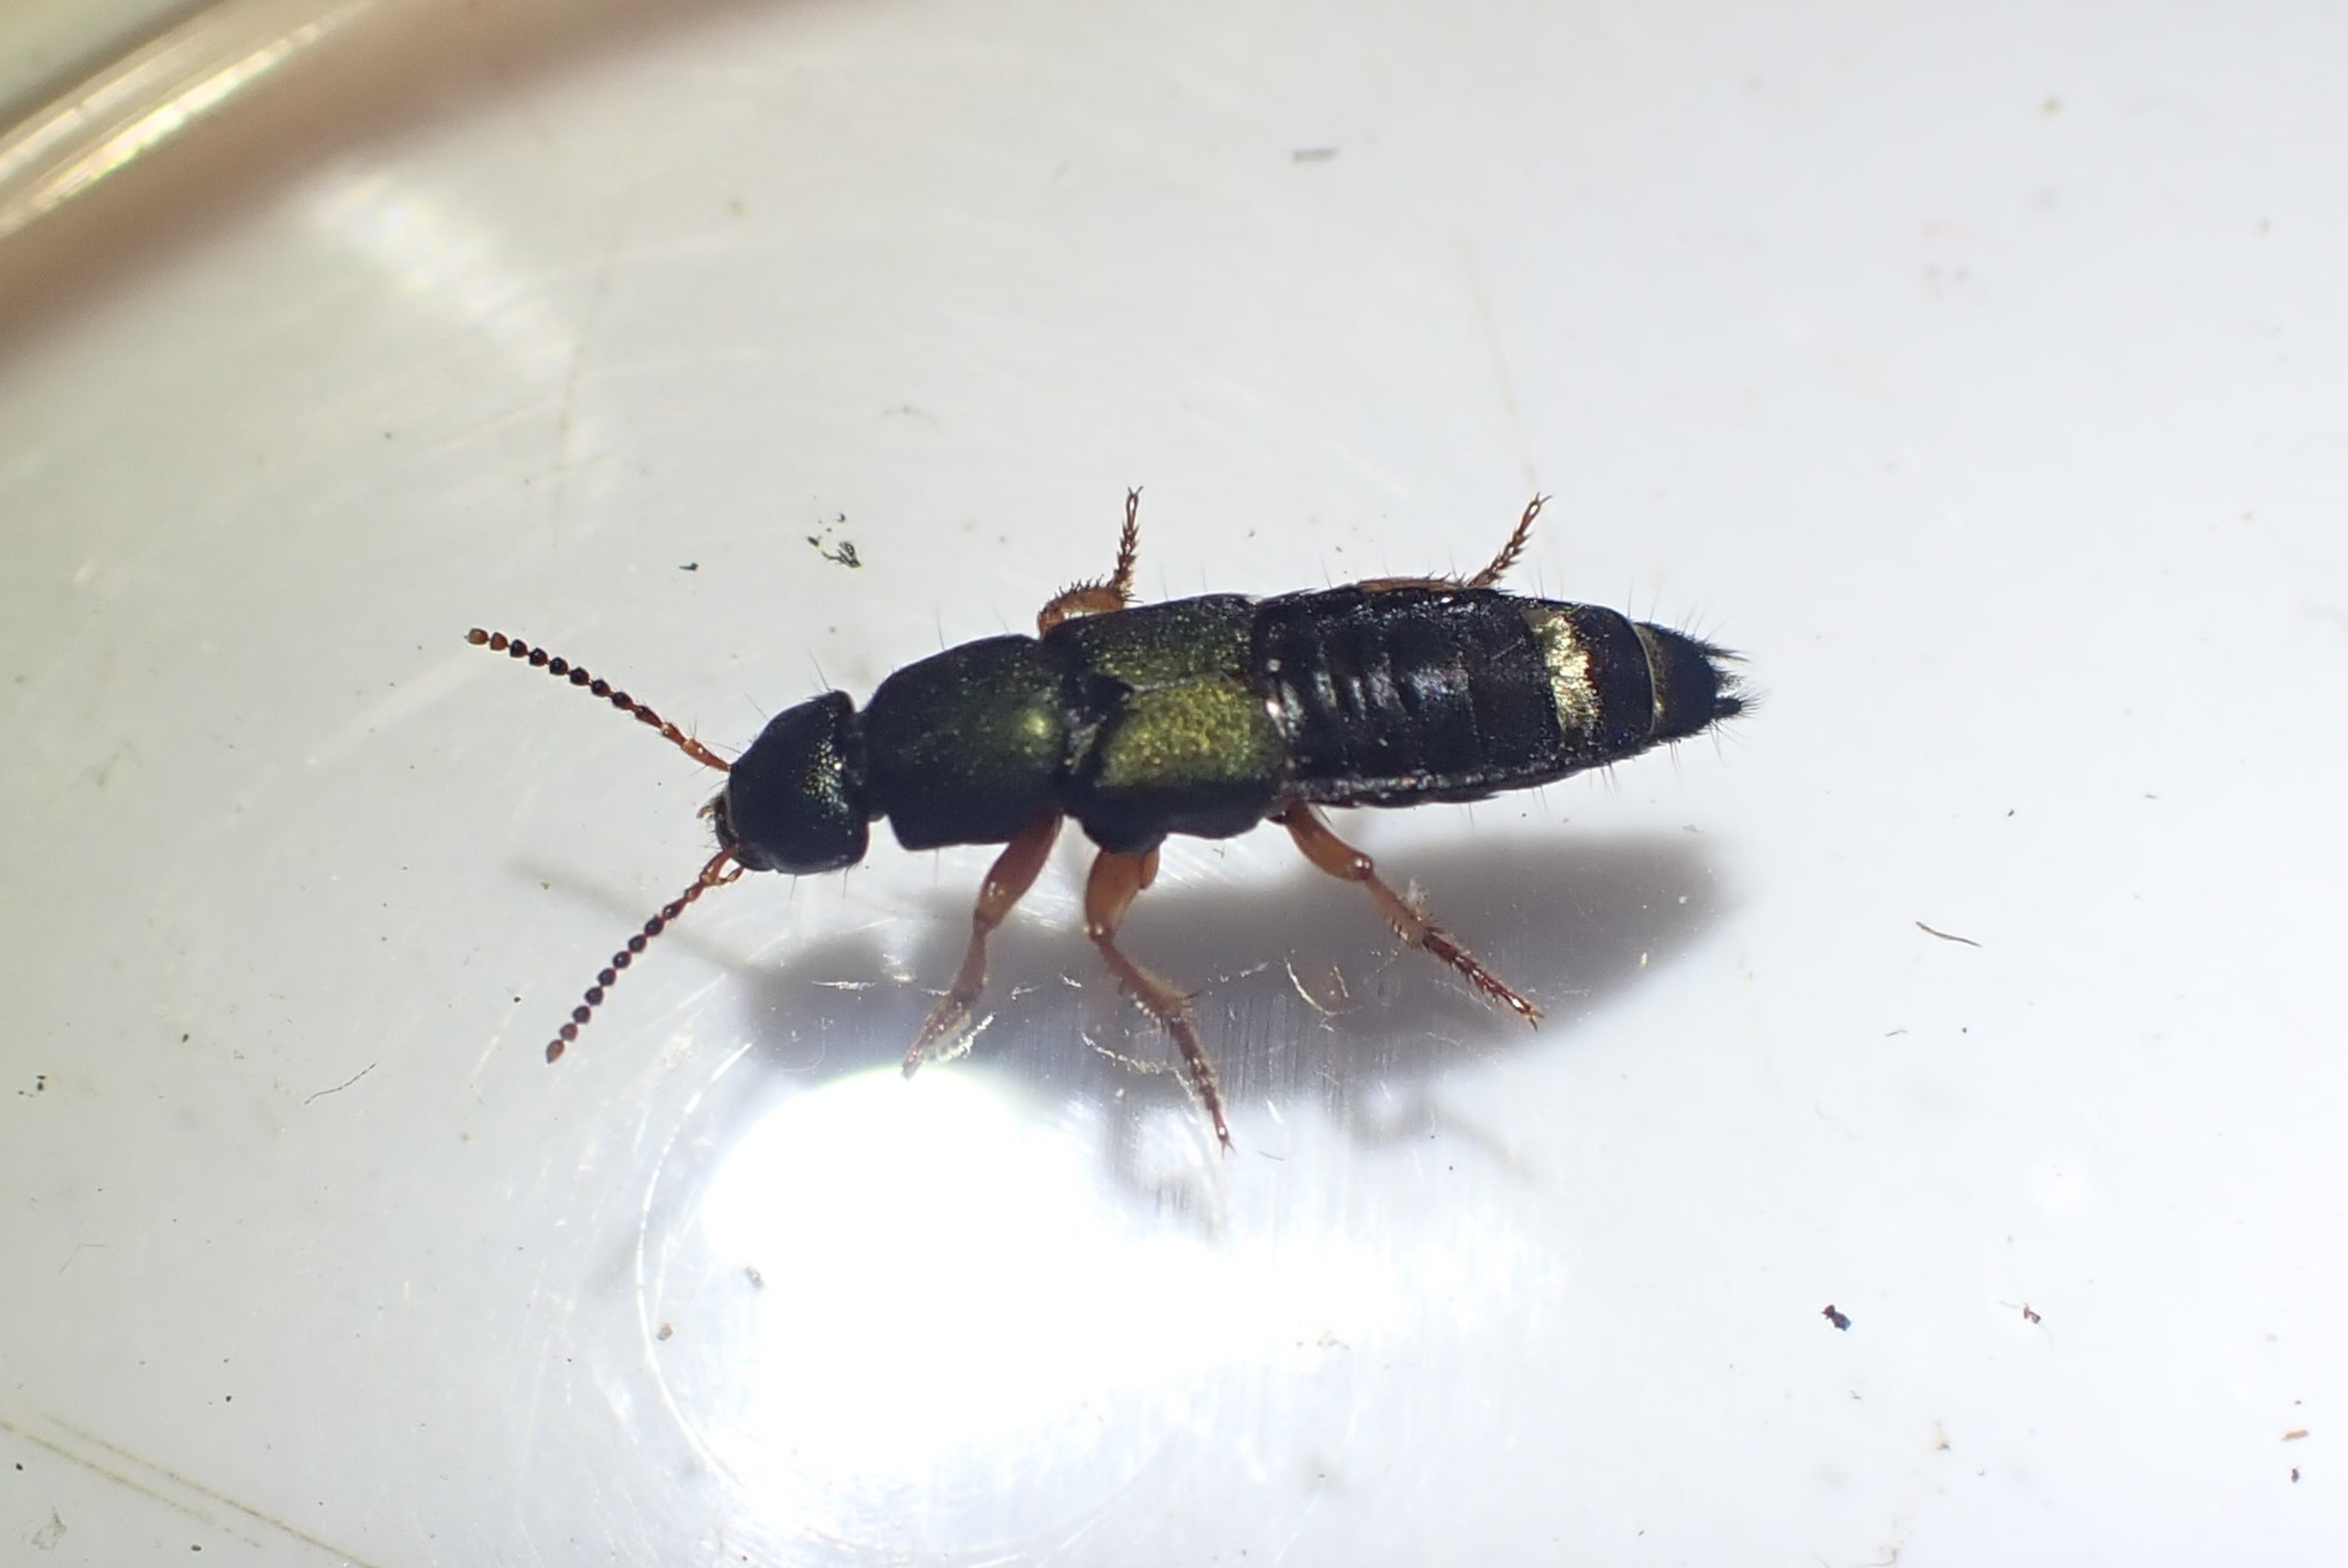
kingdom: Animalia
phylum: Arthropoda
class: Insecta
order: Coleoptera
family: Staphylinidae
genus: Platydracus
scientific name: Platydracus fulvipes
